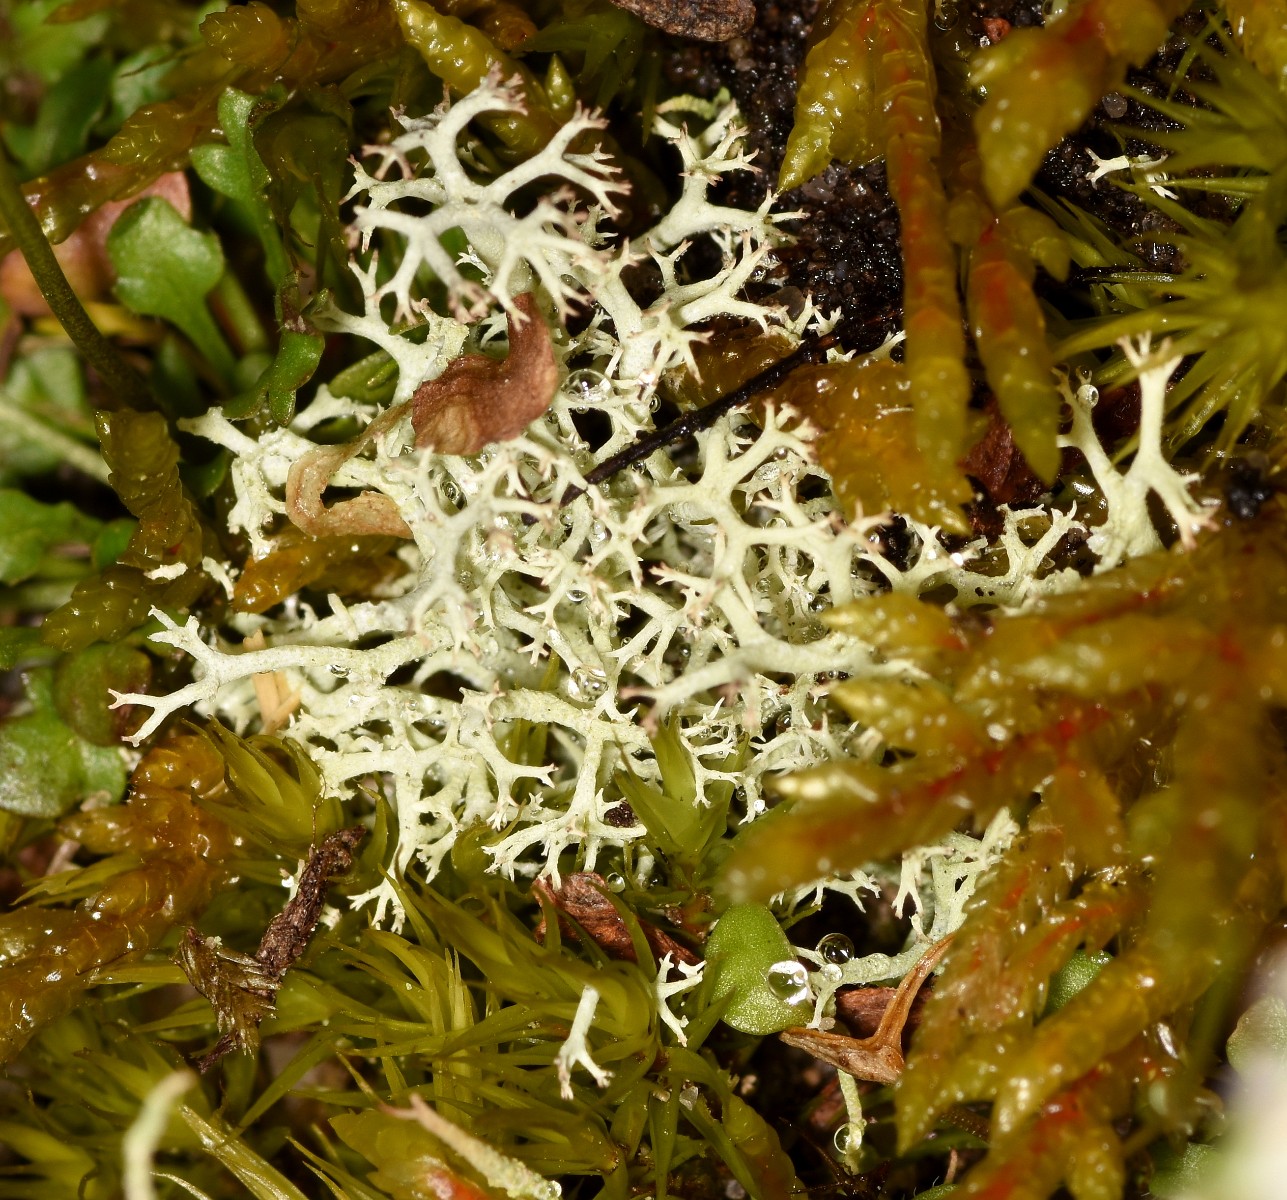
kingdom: Fungi
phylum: Ascomycota
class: Lecanoromycetes
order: Lecanorales
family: Cladoniaceae
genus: Cladonia
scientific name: Cladonia portentosa
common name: hede-rensdyrlav
